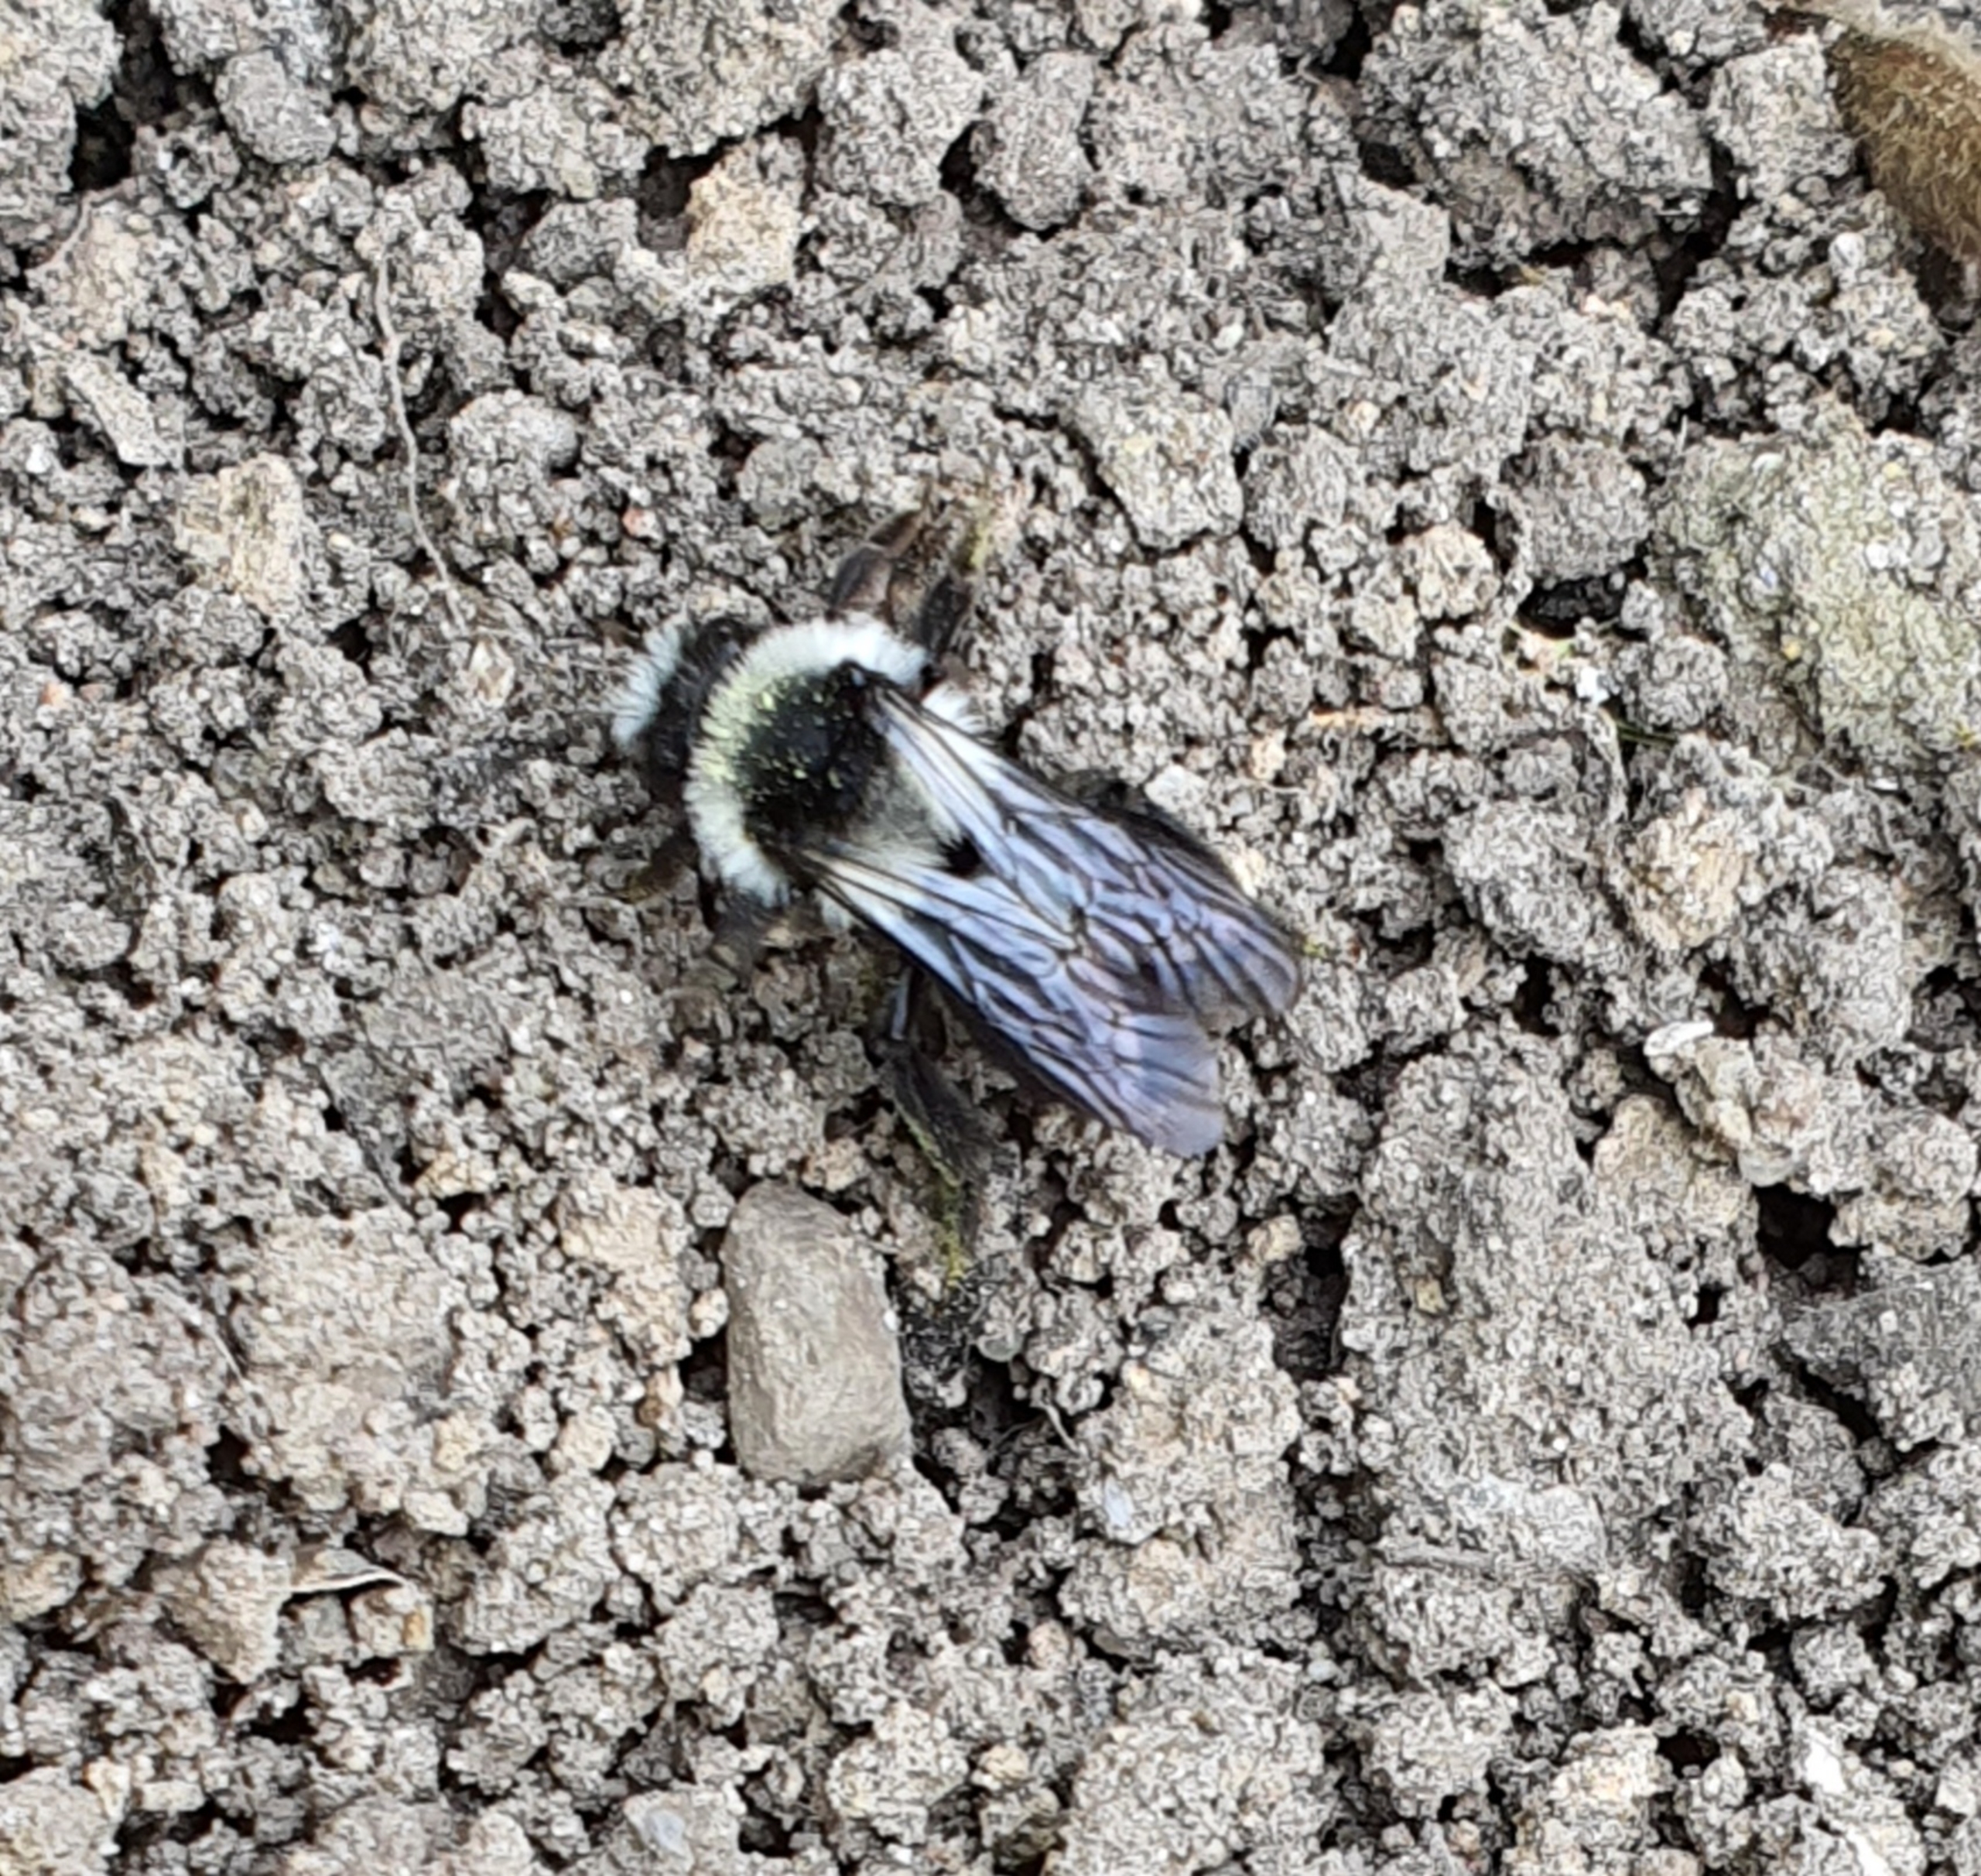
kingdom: Animalia
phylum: Arthropoda
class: Insecta
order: Hymenoptera
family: Andrenidae
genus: Andrena
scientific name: Andrena cineraria
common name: Sorthvid jordbi
